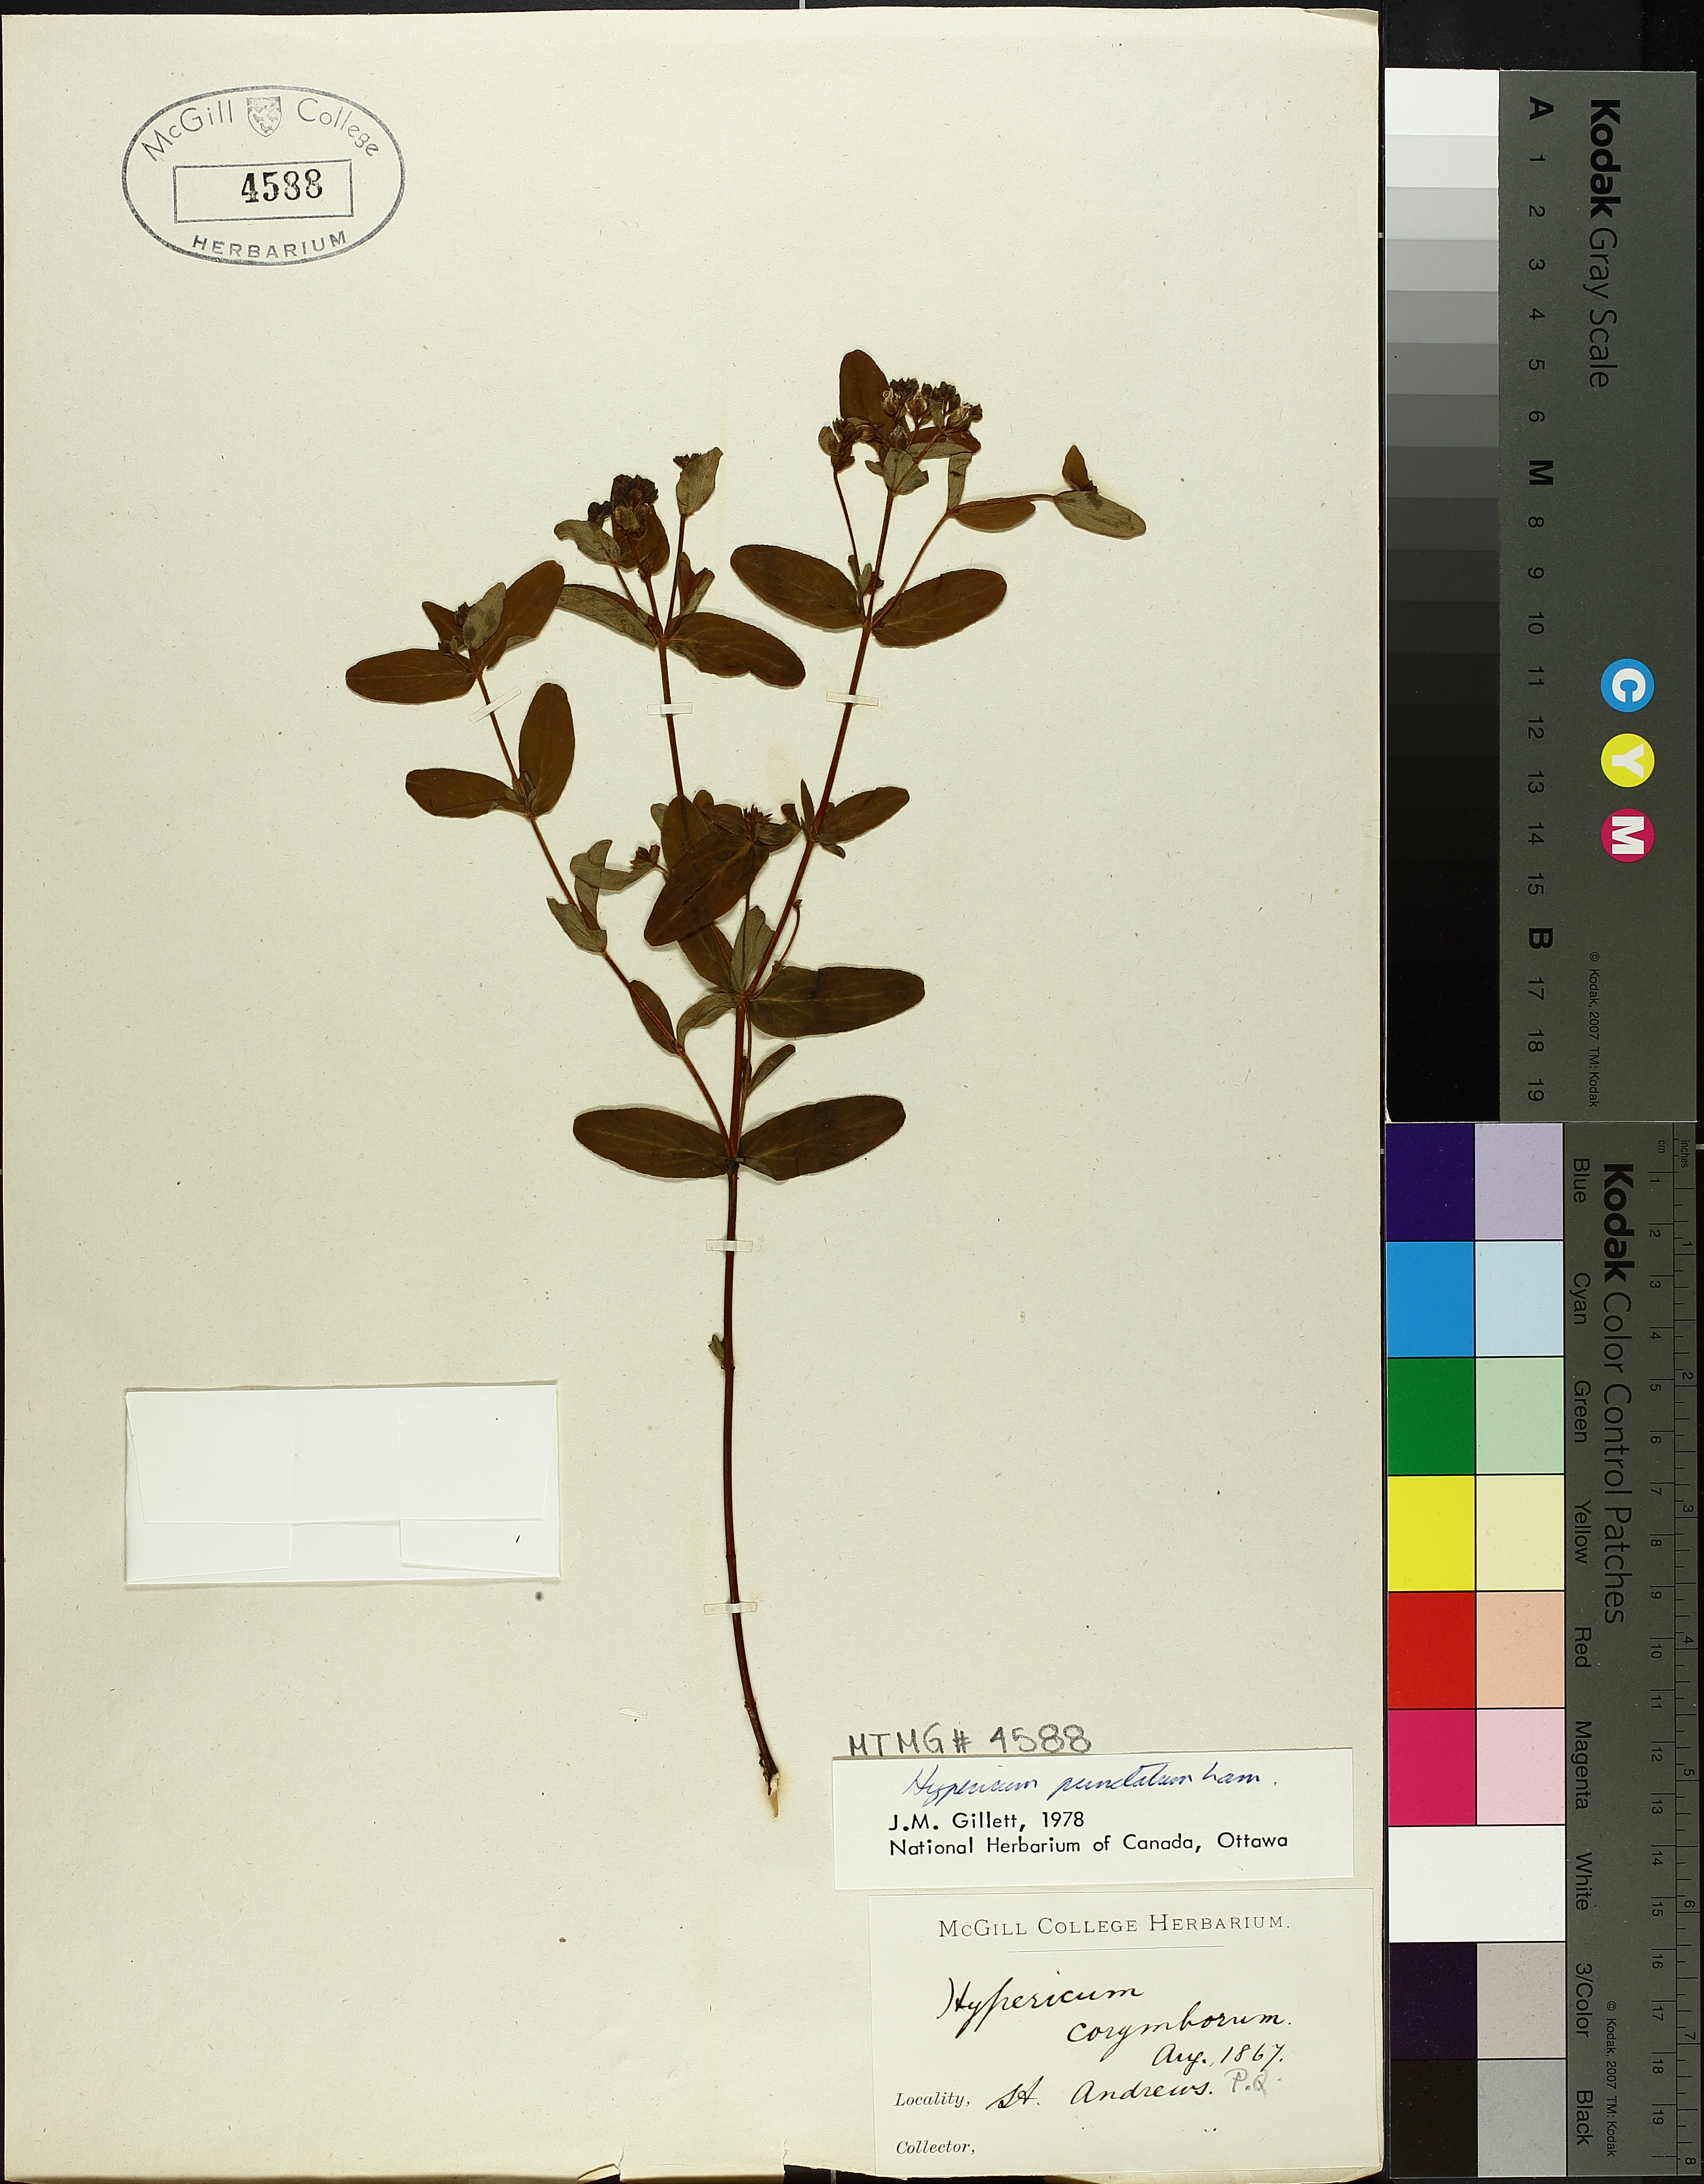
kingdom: Plantae
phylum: Tracheophyta
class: Magnoliopsida
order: Malpighiales
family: Hypericaceae
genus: Hypericum
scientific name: Hypericum punctatum
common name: Spotted st. john's-wort
